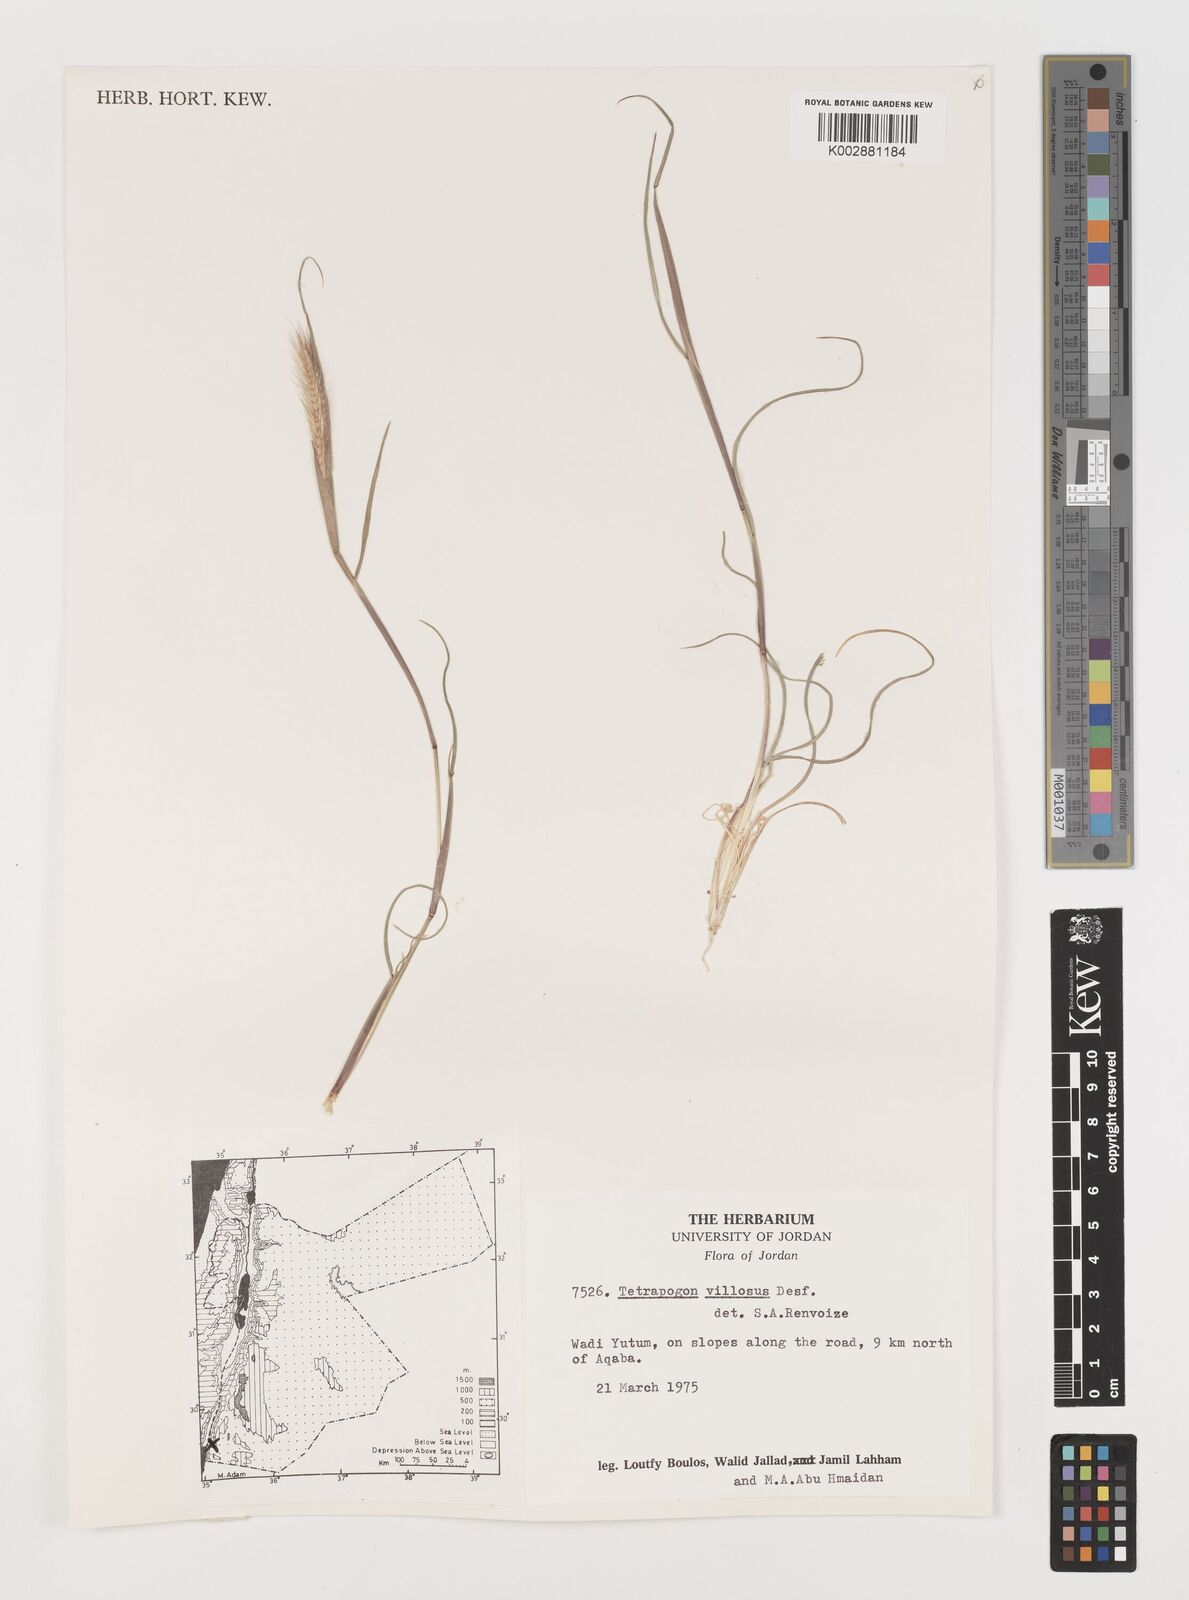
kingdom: Plantae
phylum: Tracheophyta
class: Liliopsida
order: Poales
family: Poaceae
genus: Tetrapogon
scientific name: Tetrapogon villosus
